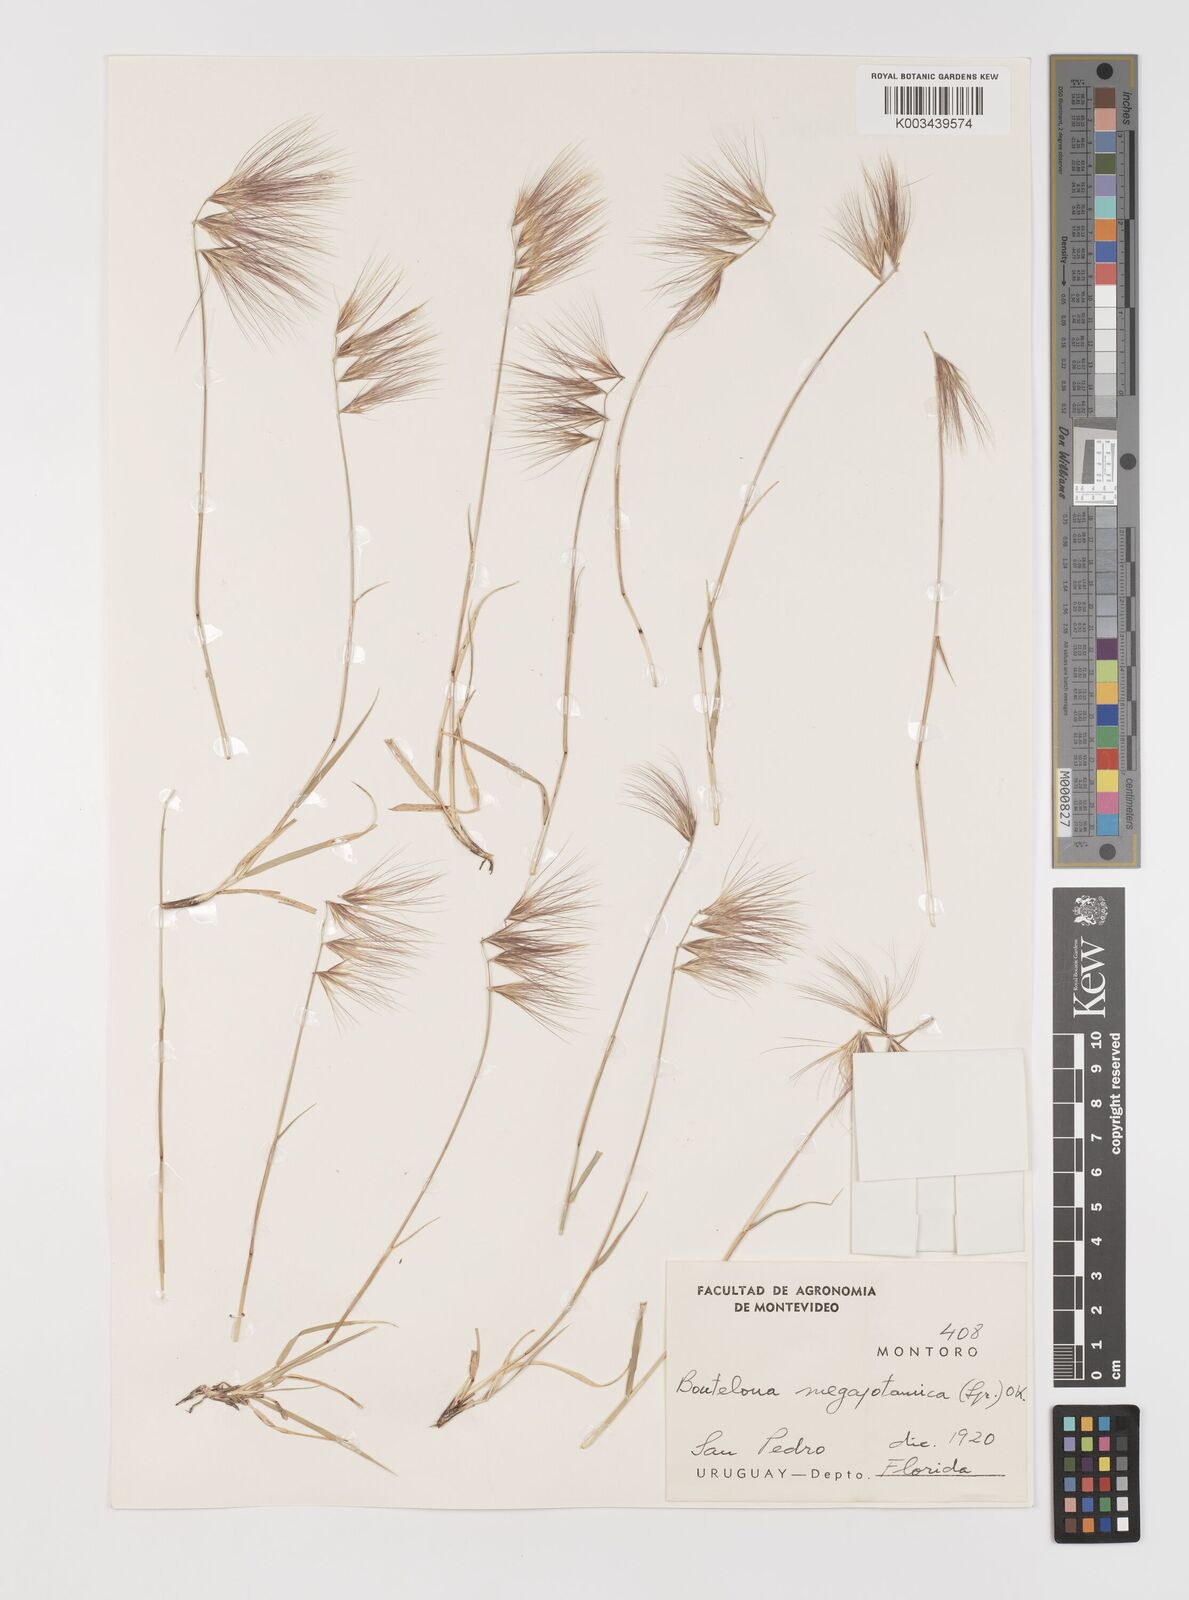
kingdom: Plantae
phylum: Tracheophyta
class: Liliopsida
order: Poales
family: Poaceae
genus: Bouteloua
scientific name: Bouteloua megapotamica
